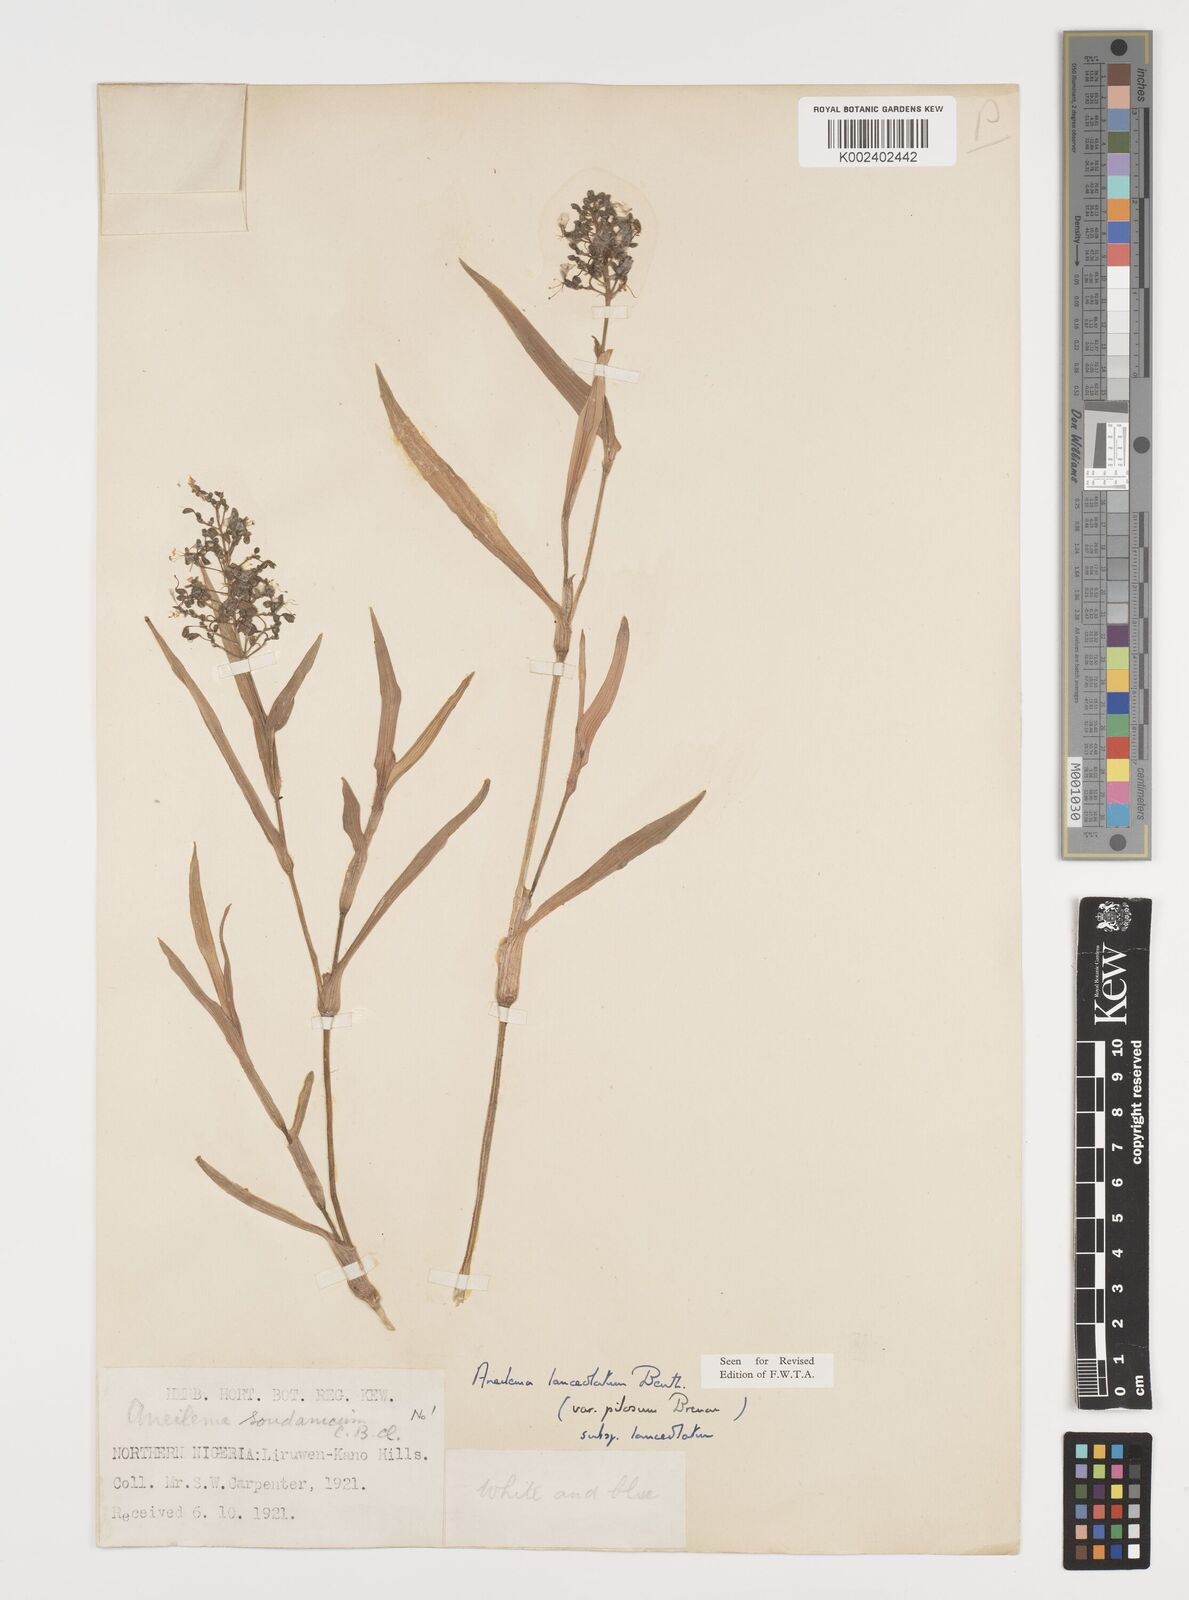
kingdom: Plantae
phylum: Tracheophyta
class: Liliopsida
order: Commelinales
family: Commelinaceae
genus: Aneilema
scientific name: Aneilema lanceolatum
